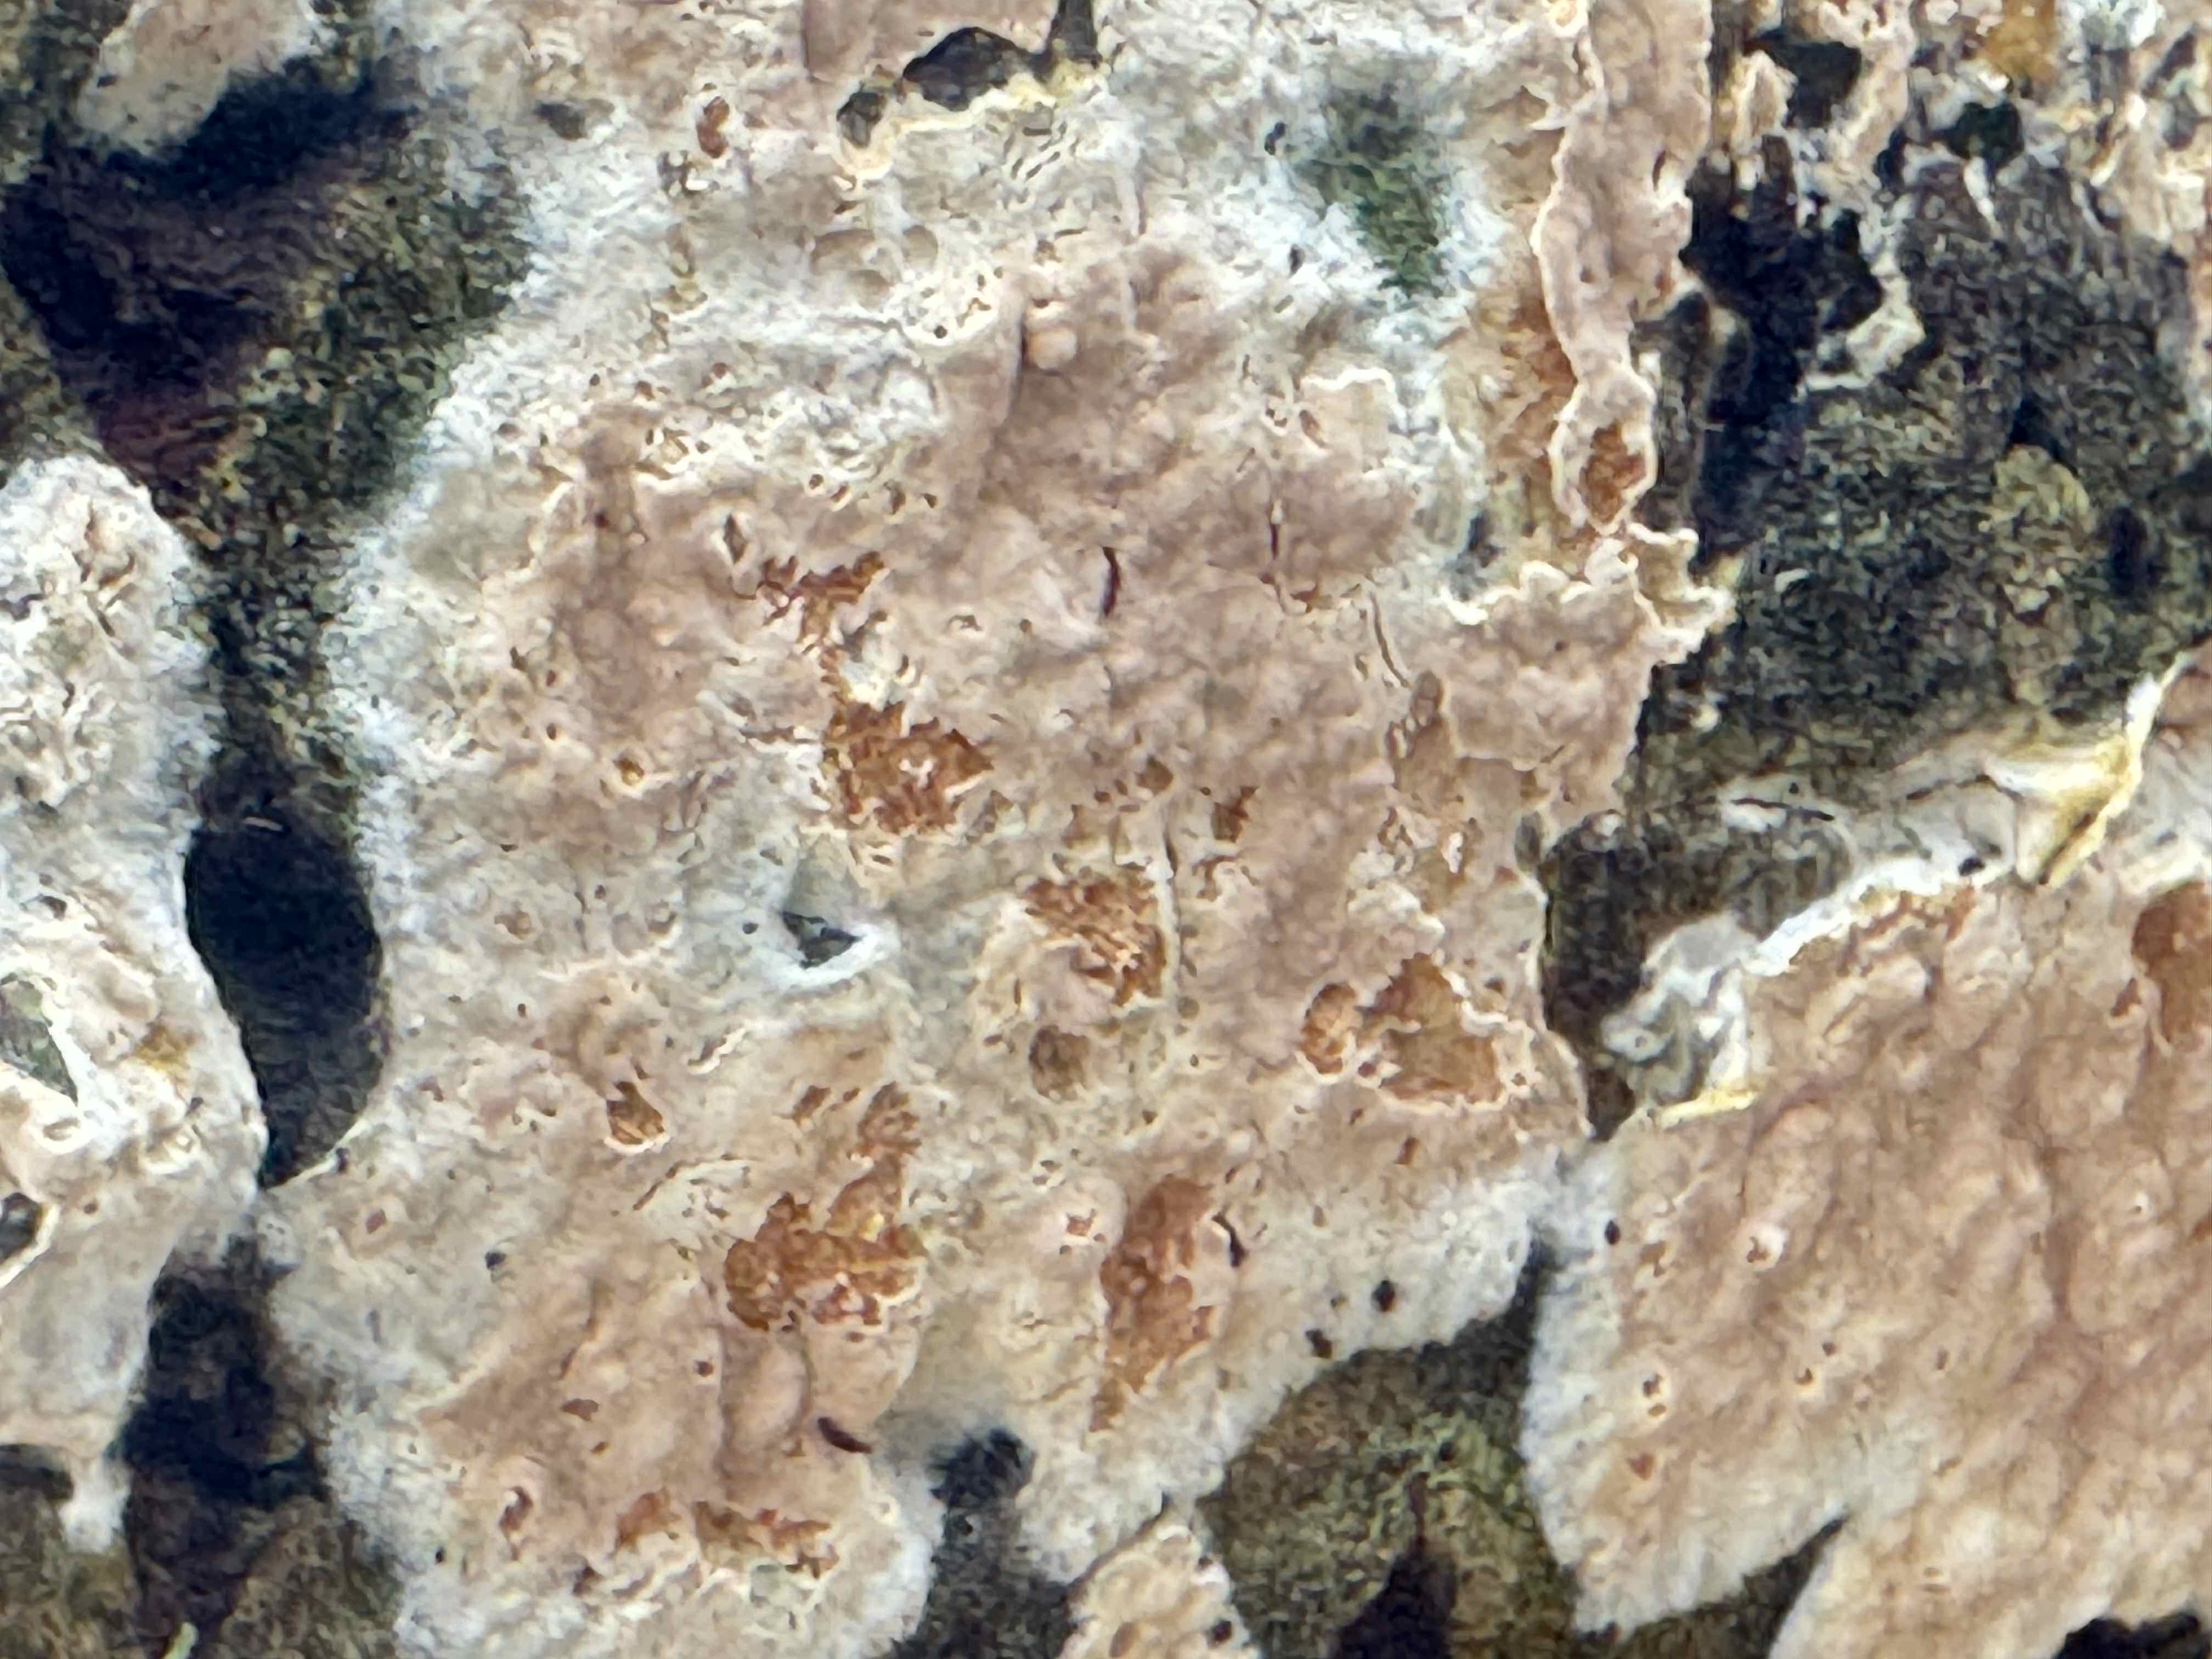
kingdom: Fungi
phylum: Basidiomycota
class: Agaricomycetes
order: Agaricales
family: Physalacriaceae
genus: Cylindrobasidium
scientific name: Cylindrobasidium evolvens
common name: sprækkehinde
